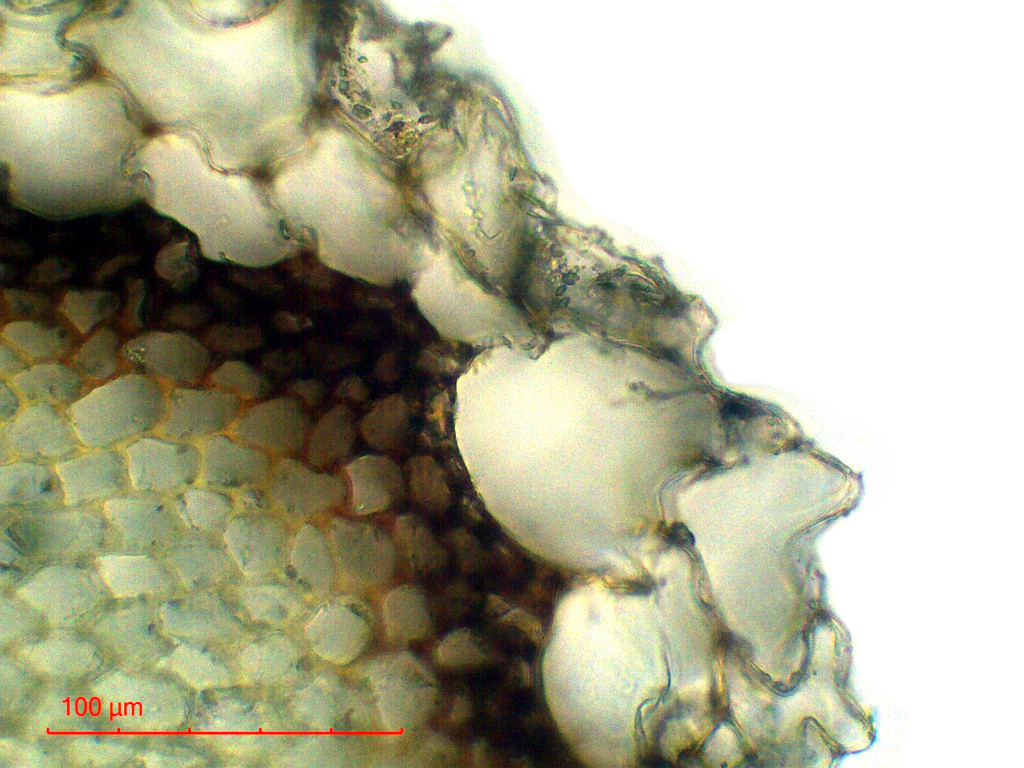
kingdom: Plantae
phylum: Bryophyta
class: Sphagnopsida
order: Sphagnales
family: Sphagnaceae
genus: Sphagnum
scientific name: Sphagnum perichaetiale
